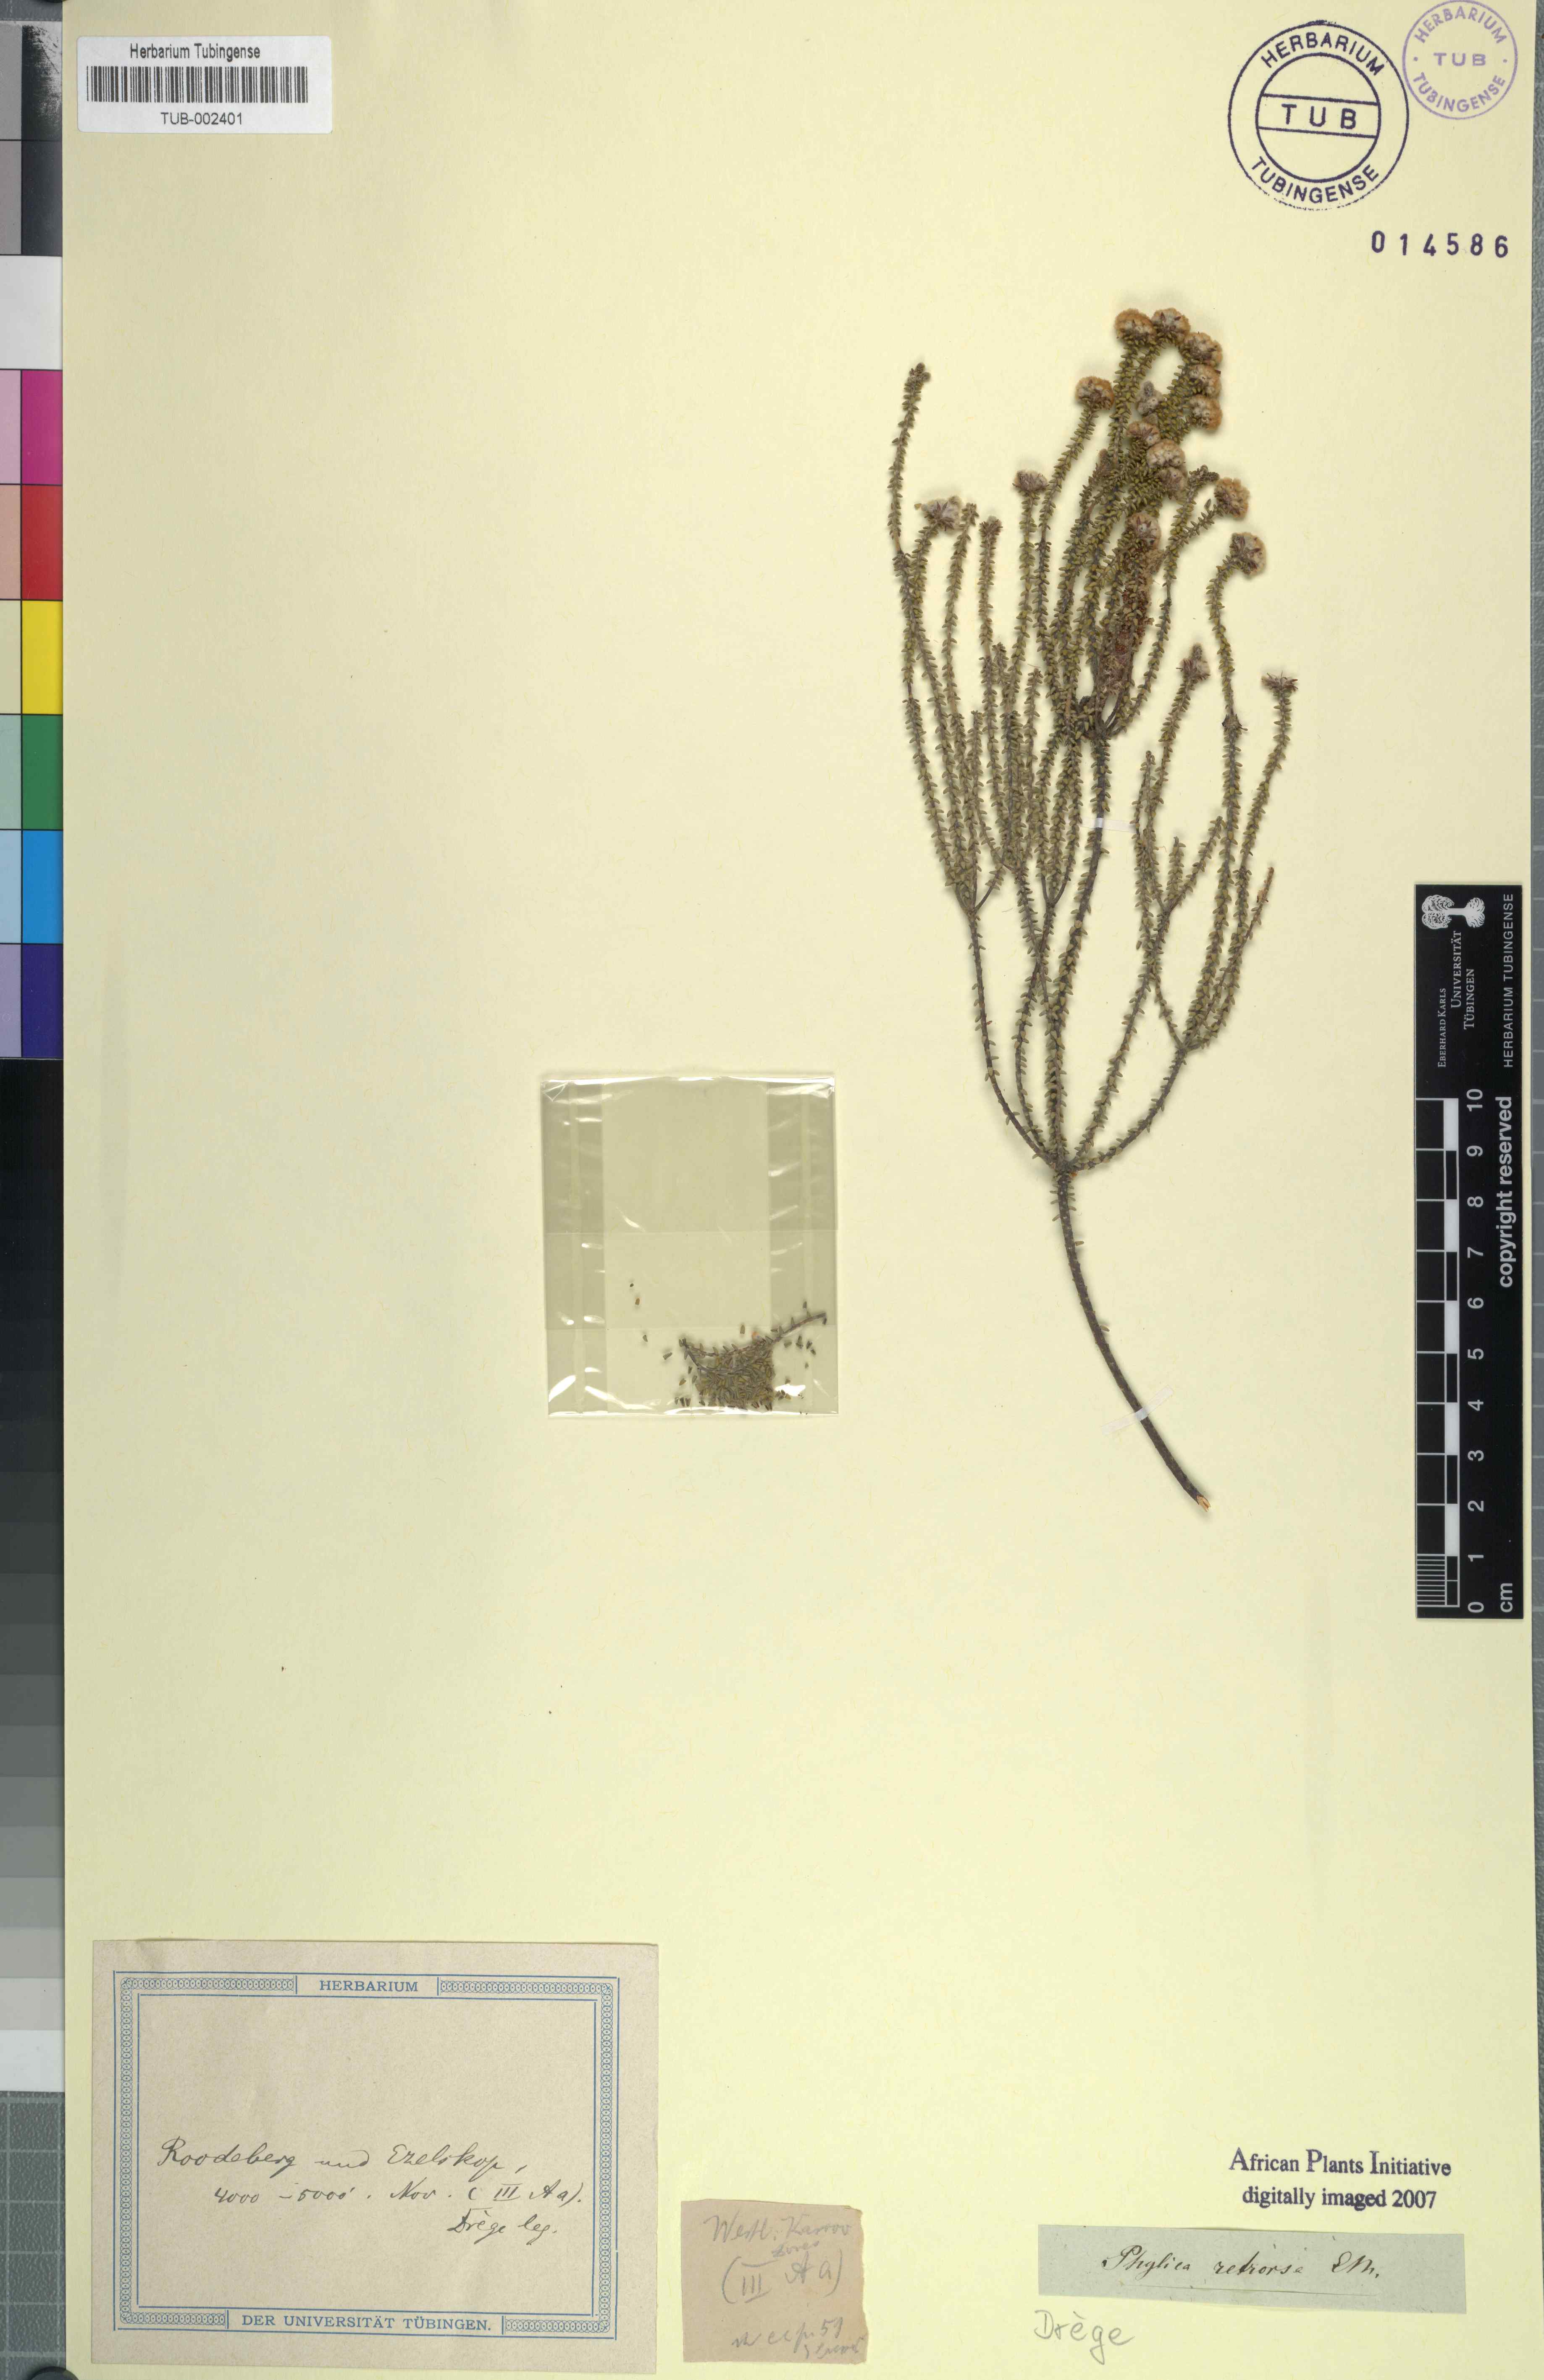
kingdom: Plantae
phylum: Tracheophyta
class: Magnoliopsida
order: Rosales
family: Rhamnaceae
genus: Phylica
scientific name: Phylica retrorsa
